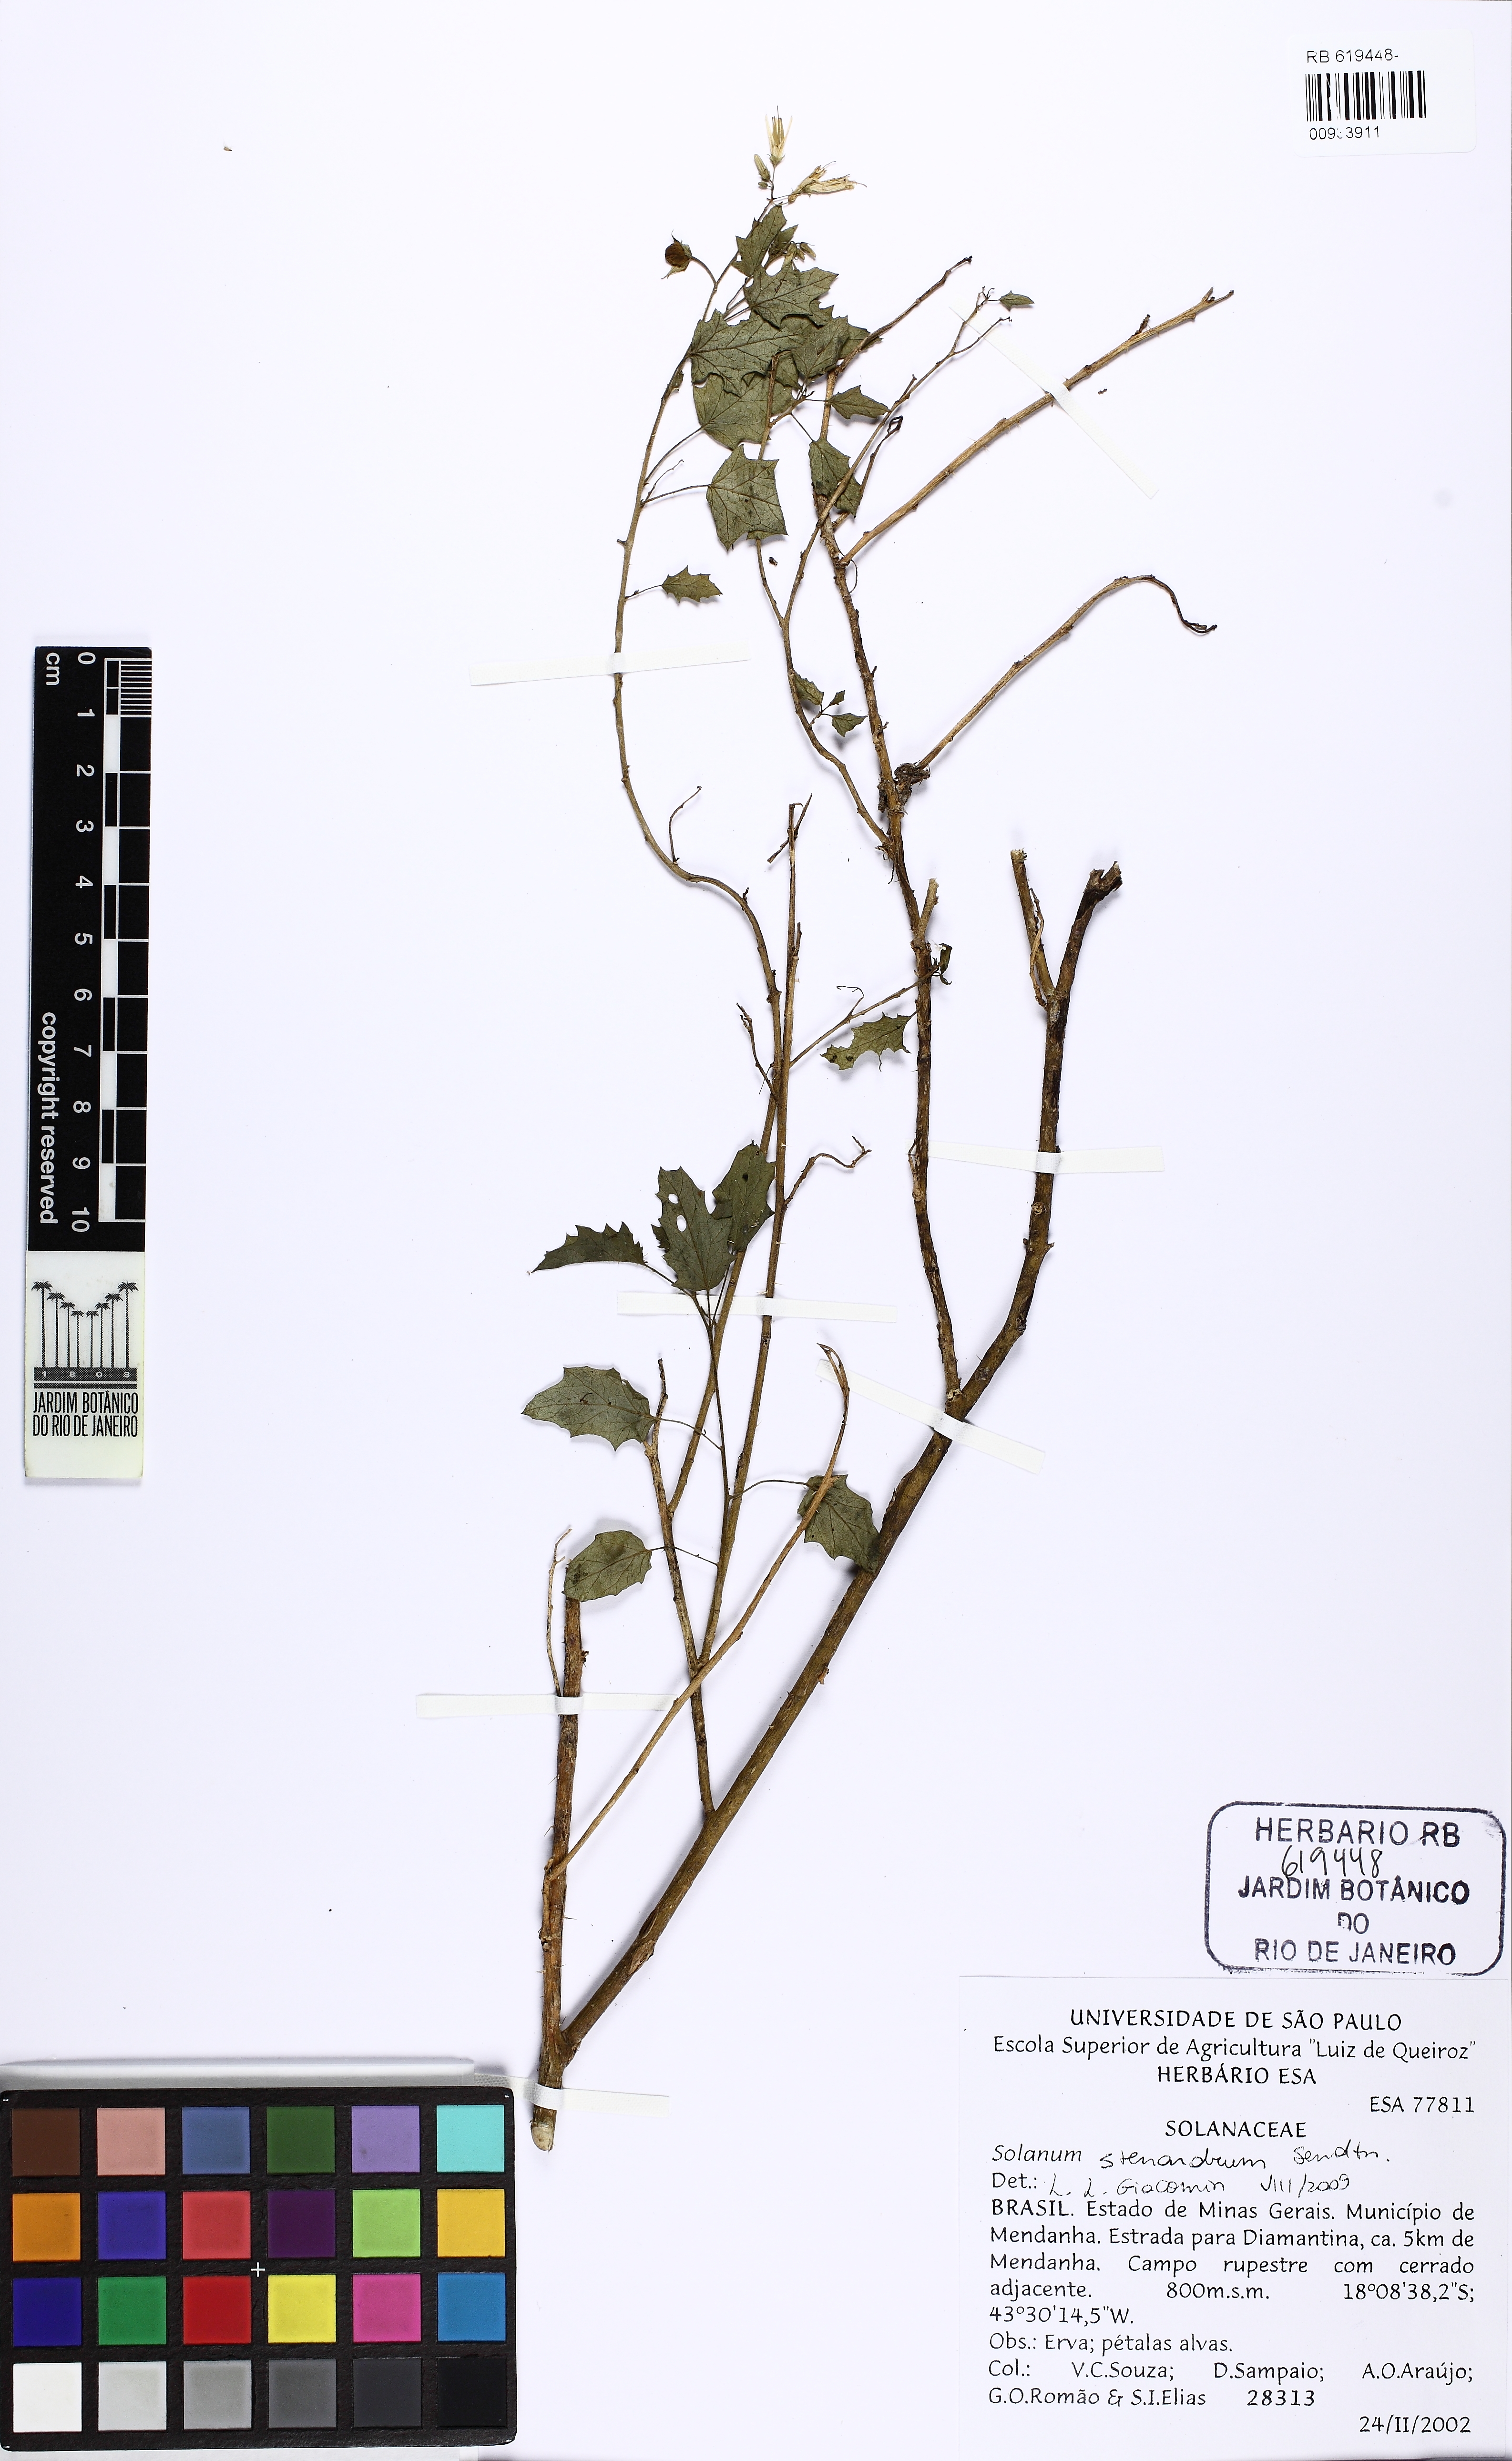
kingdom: Plantae
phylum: Tracheophyta
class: Magnoliopsida
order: Solanales
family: Solanaceae
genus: Solanum
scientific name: Solanum stenandrum
